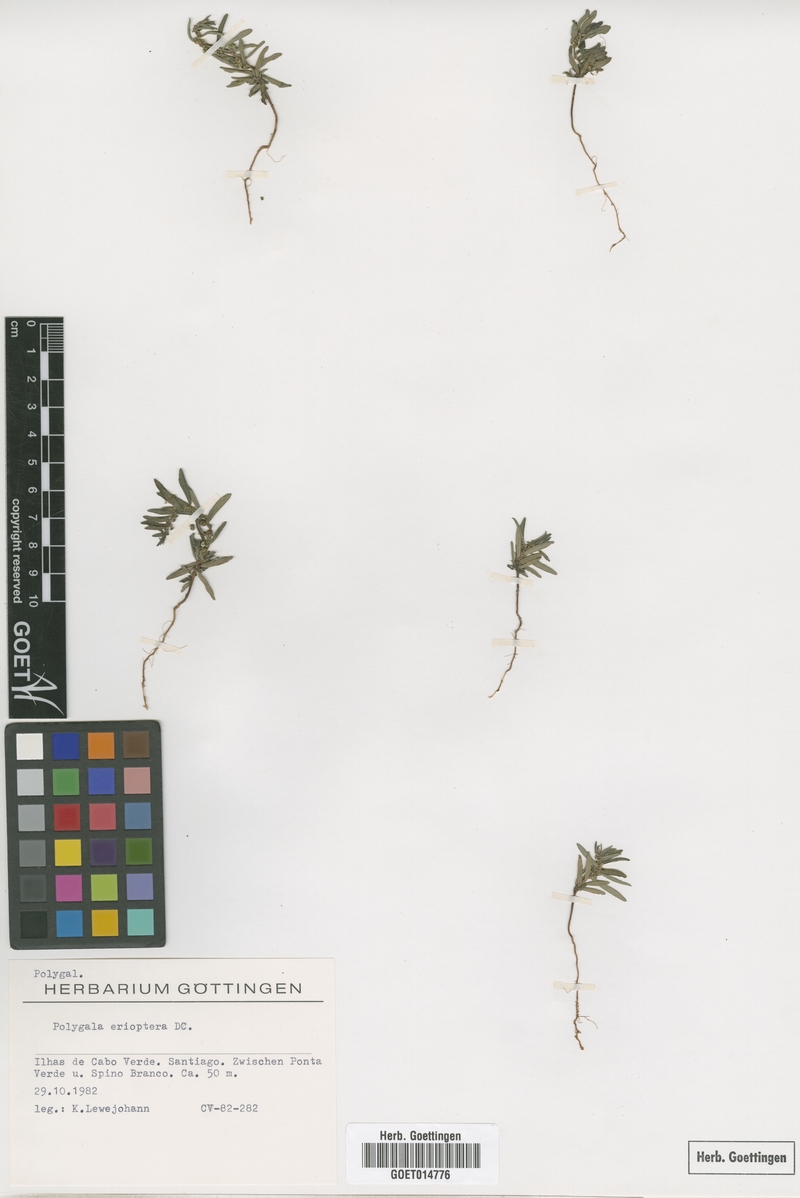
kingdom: Plantae
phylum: Tracheophyta
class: Magnoliopsida
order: Fabales
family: Polygalaceae
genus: Polygala
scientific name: Polygala erioptera
